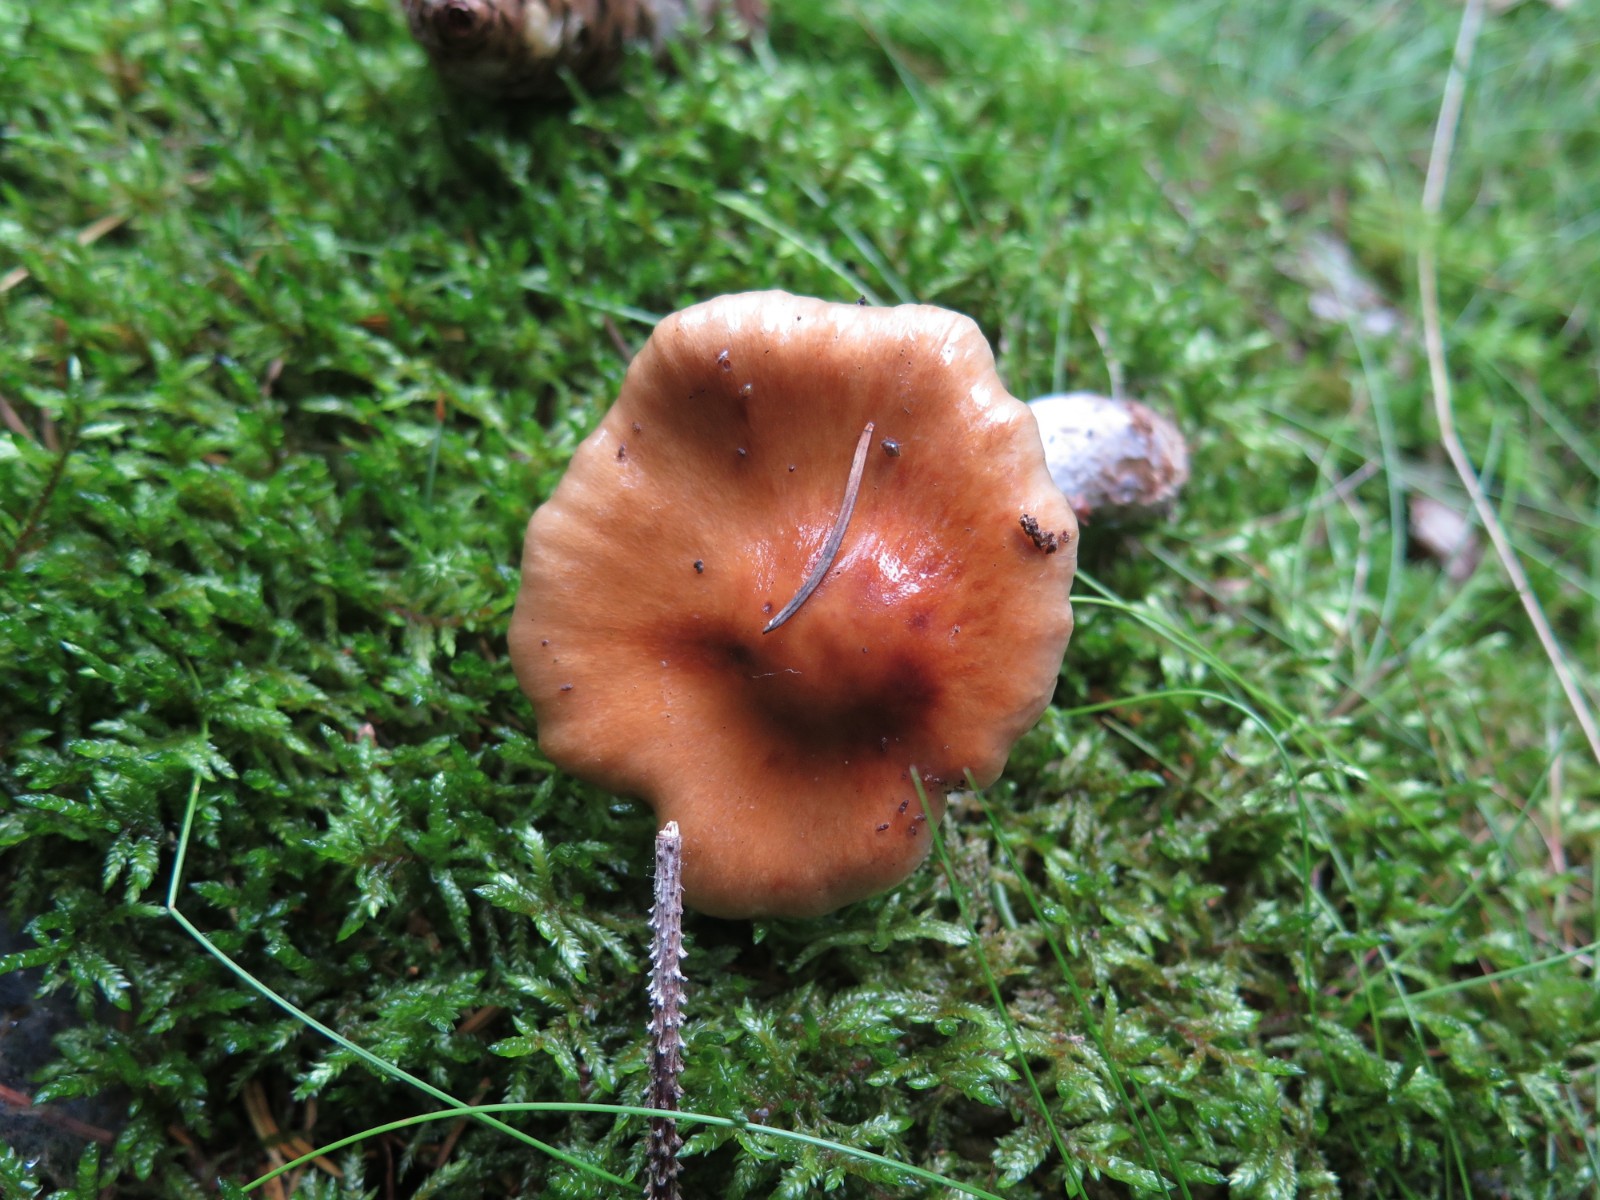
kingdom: Fungi
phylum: Basidiomycota
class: Agaricomycetes
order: Agaricales
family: Cortinariaceae
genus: Cortinarius
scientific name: Cortinarius collinitus
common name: spættet slørhat
